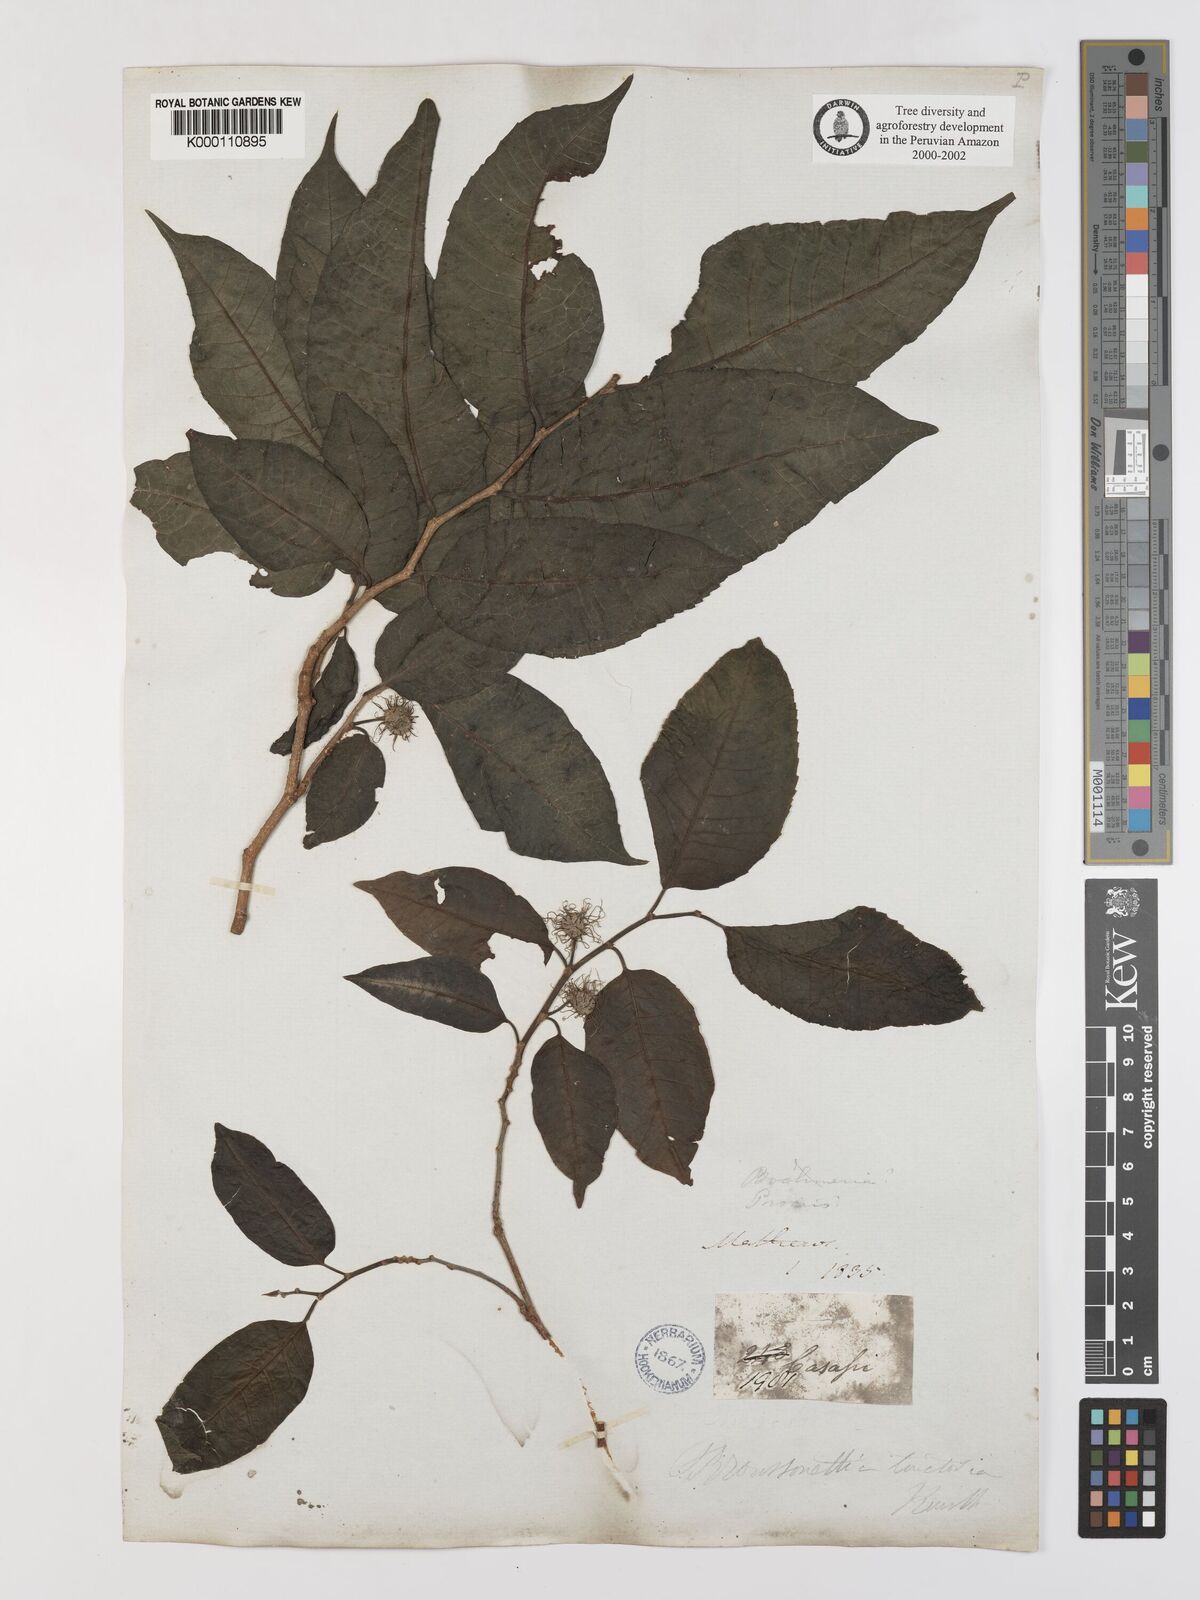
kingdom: Plantae
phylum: Tracheophyta
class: Magnoliopsida
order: Rosales
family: Moraceae
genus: Maclura
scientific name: Maclura tinctoria
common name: Old fustic
